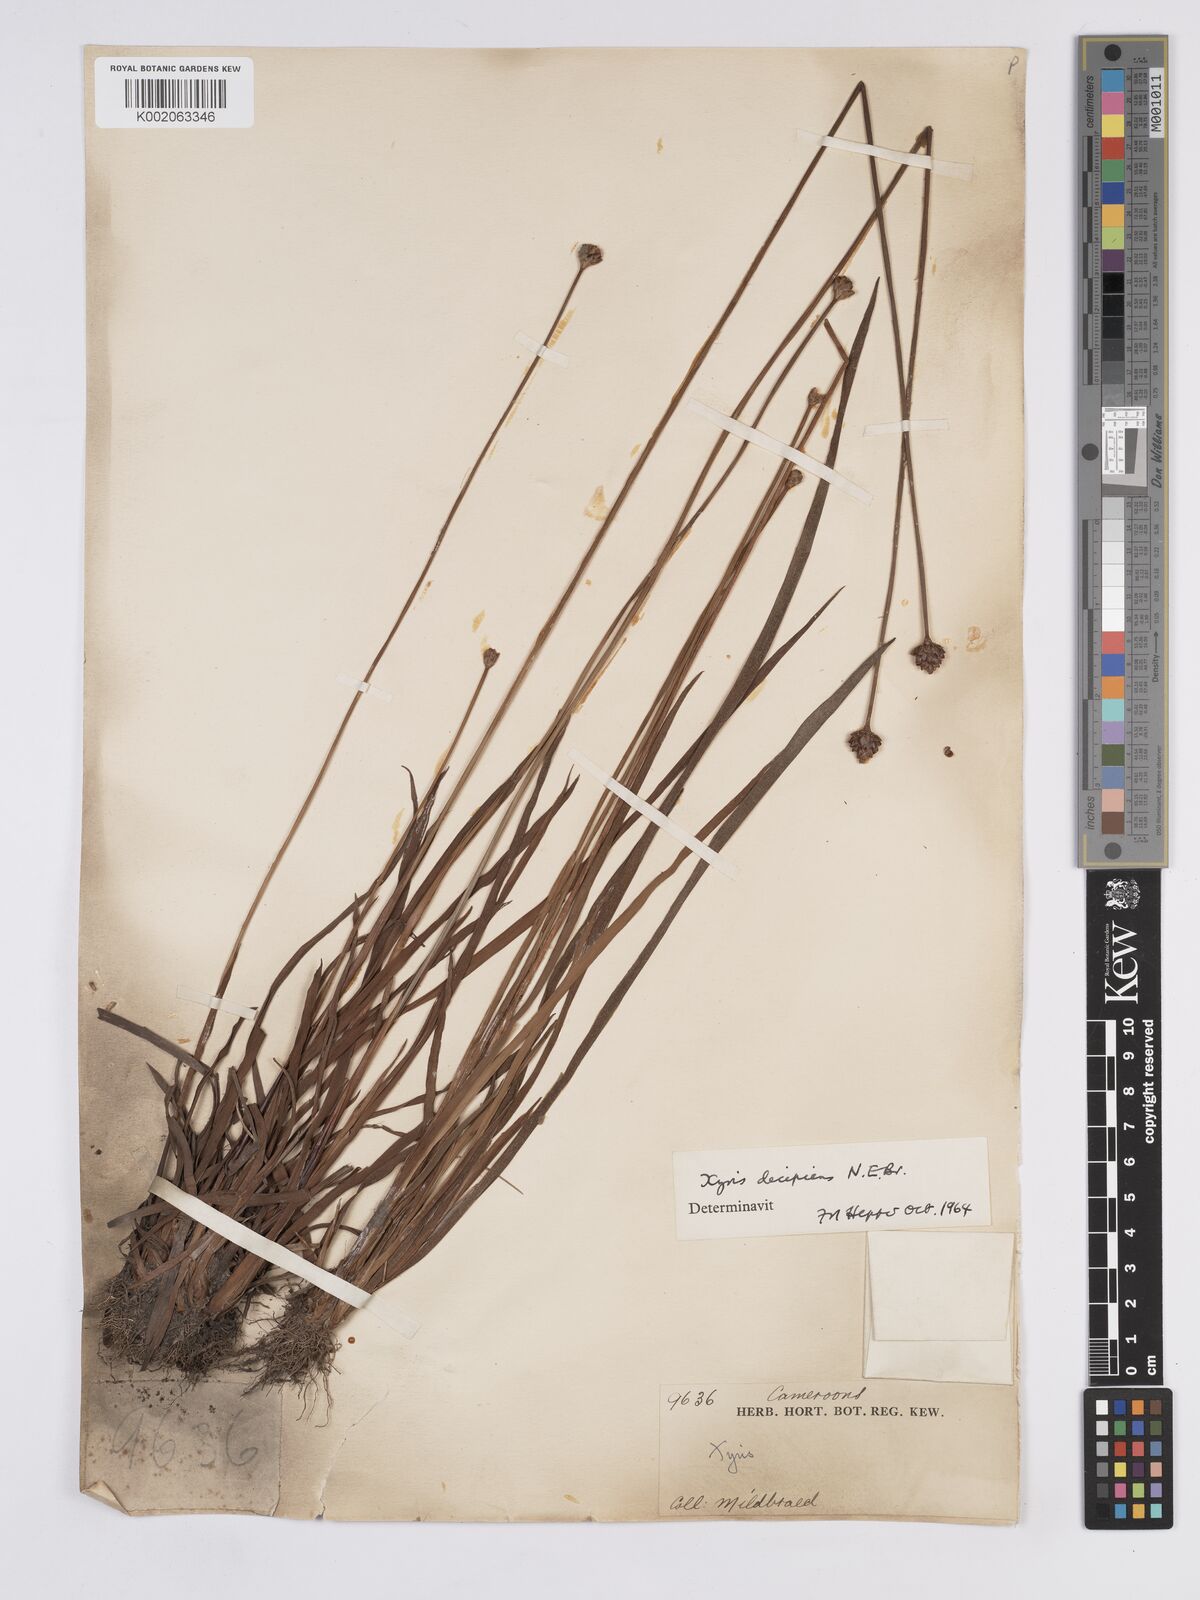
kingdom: Plantae
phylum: Tracheophyta
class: Liliopsida
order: Poales
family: Xyridaceae
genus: Xyris
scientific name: Xyris decipiens
